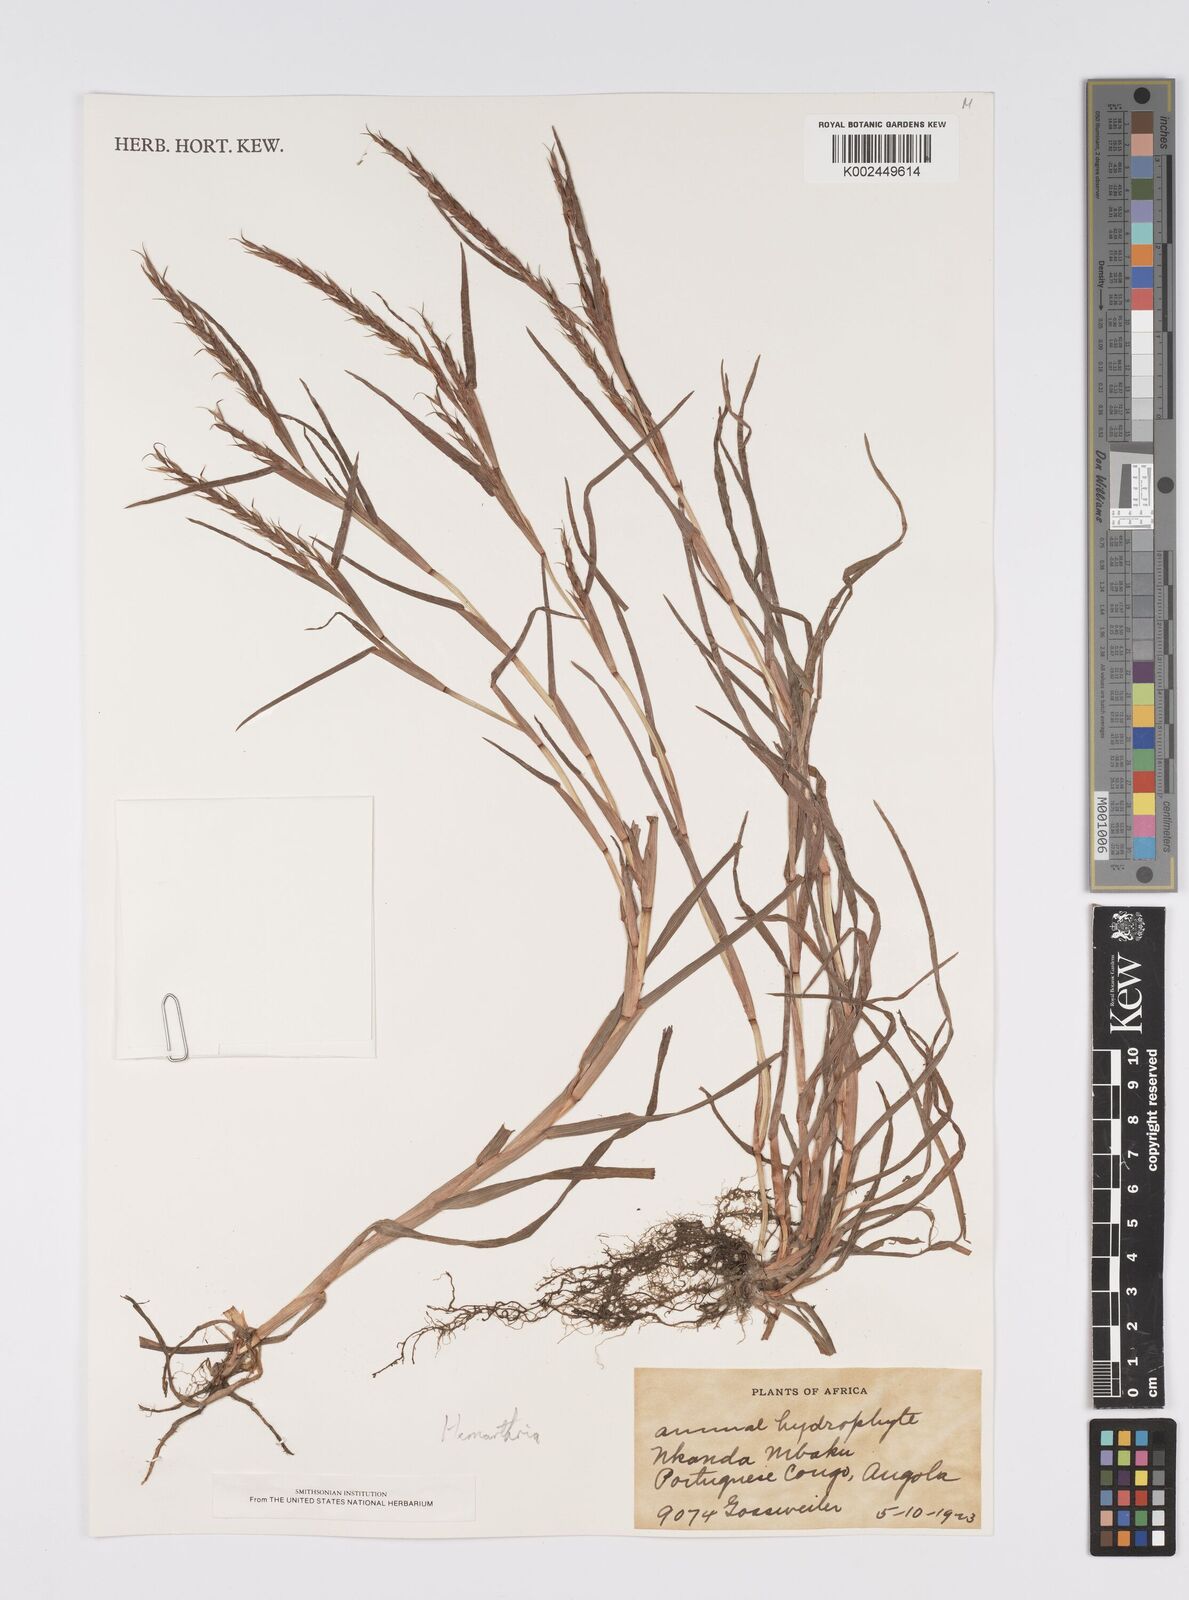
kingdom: Plantae
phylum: Tracheophyta
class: Liliopsida
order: Poales
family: Poaceae
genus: Hemarthria
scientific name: Hemarthria natans
